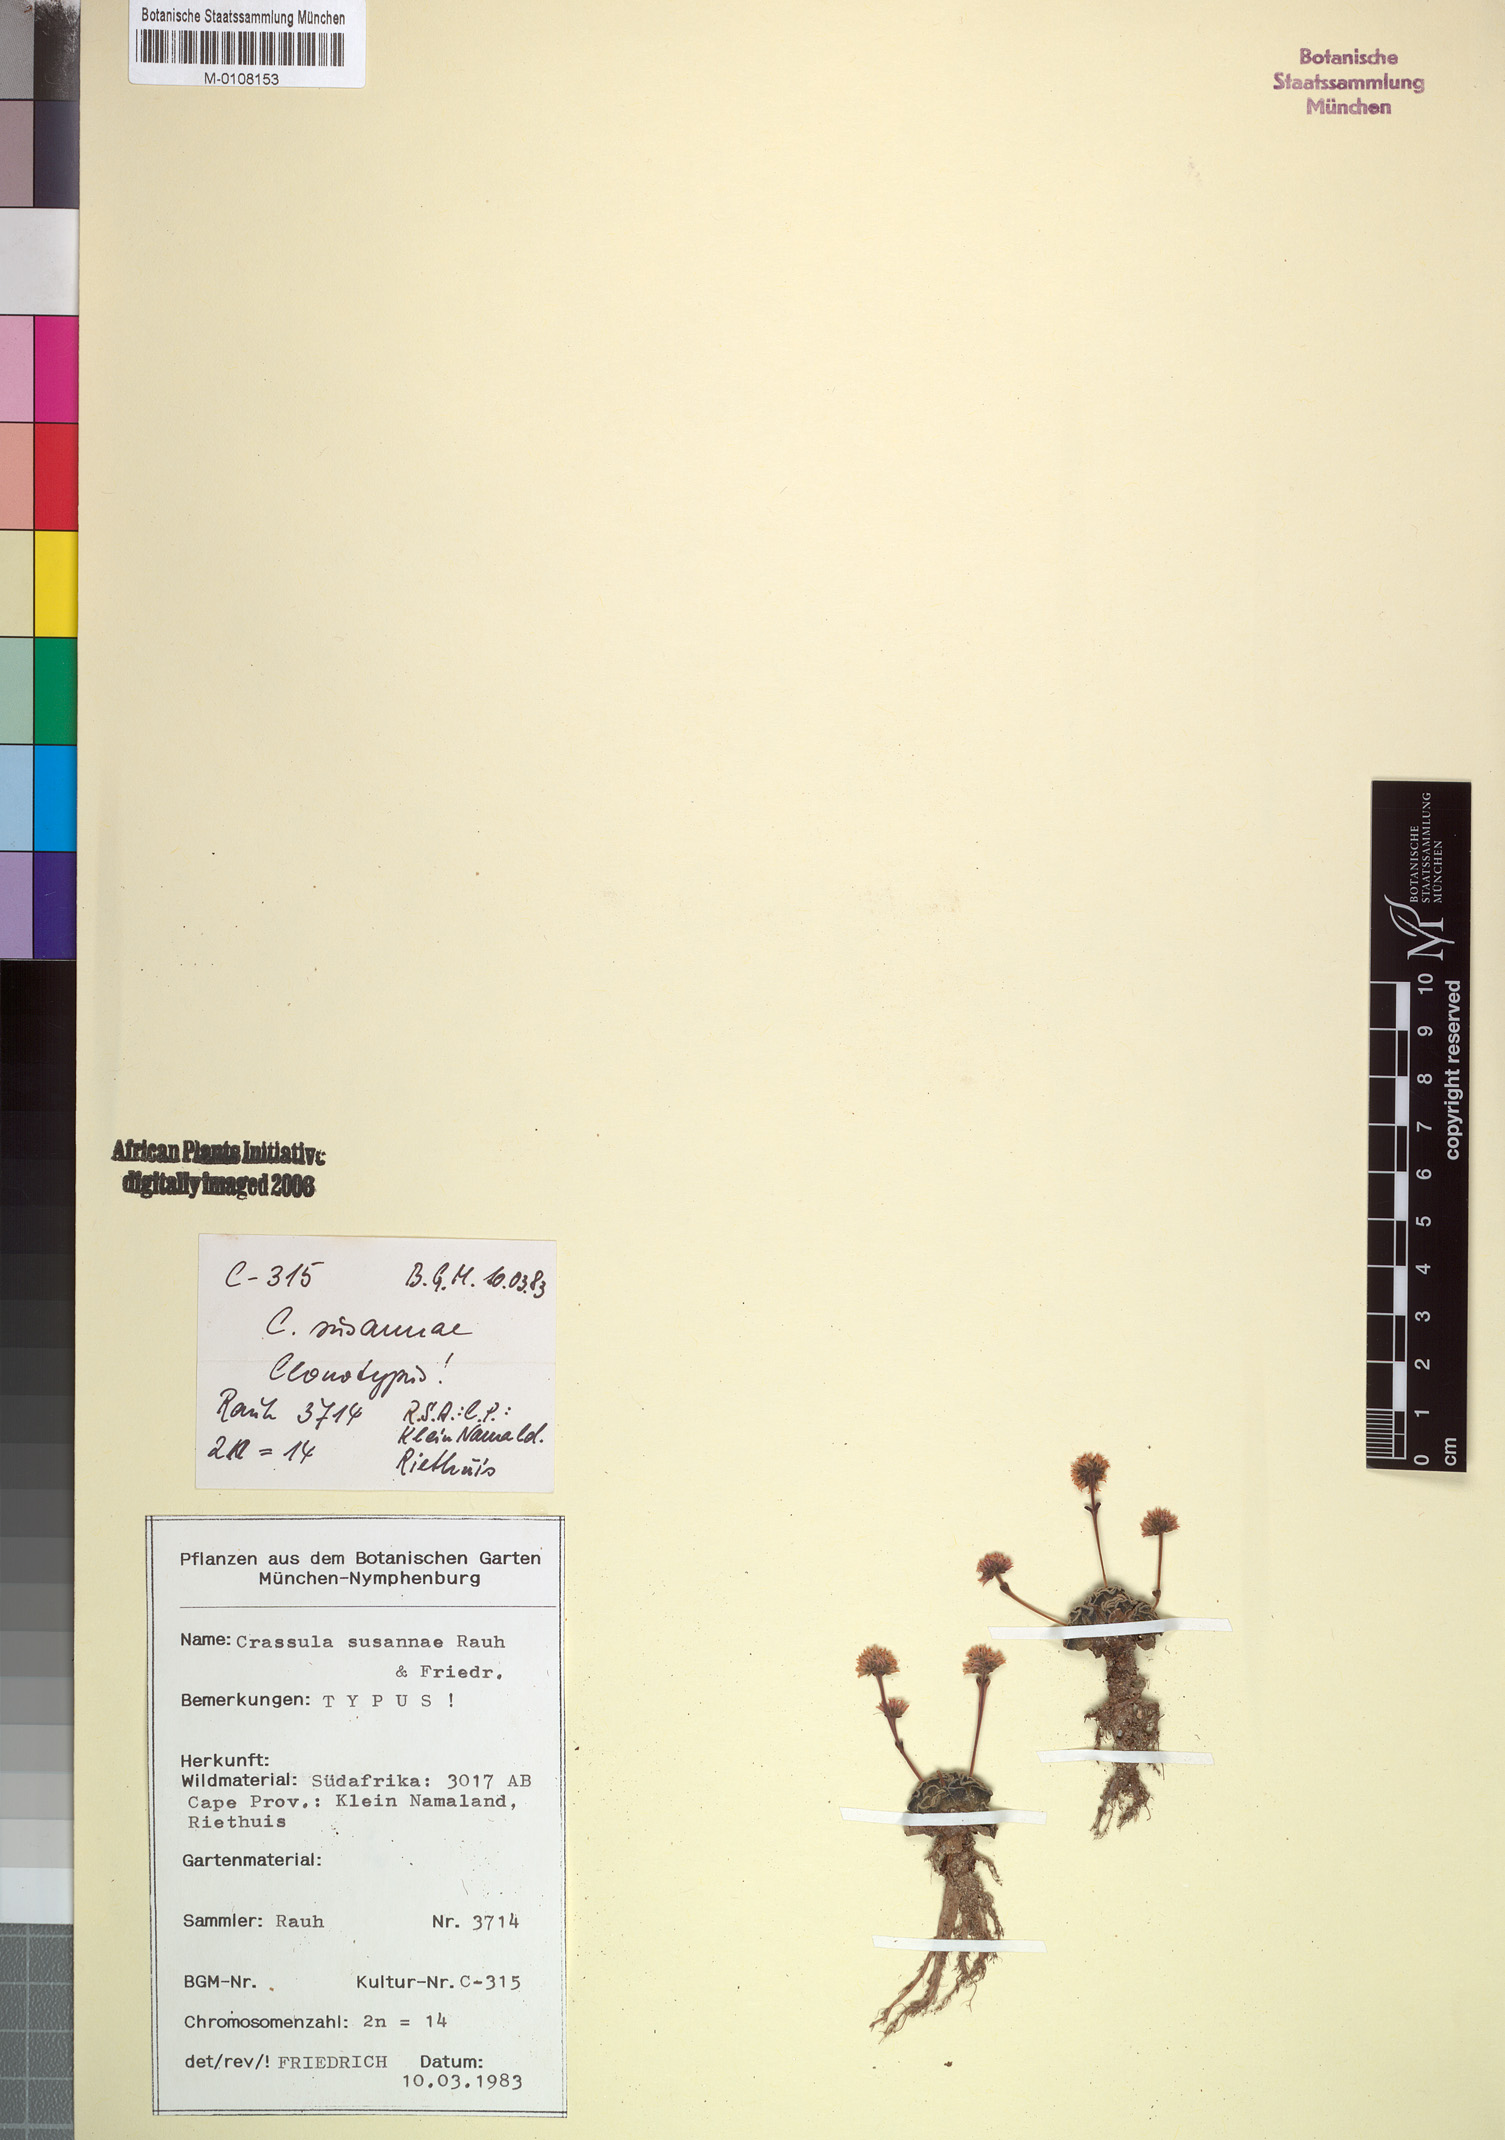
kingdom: Plantae
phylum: Tracheophyta
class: Magnoliopsida
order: Saxifragales
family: Crassulaceae
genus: Crassula
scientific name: Crassula susannae
